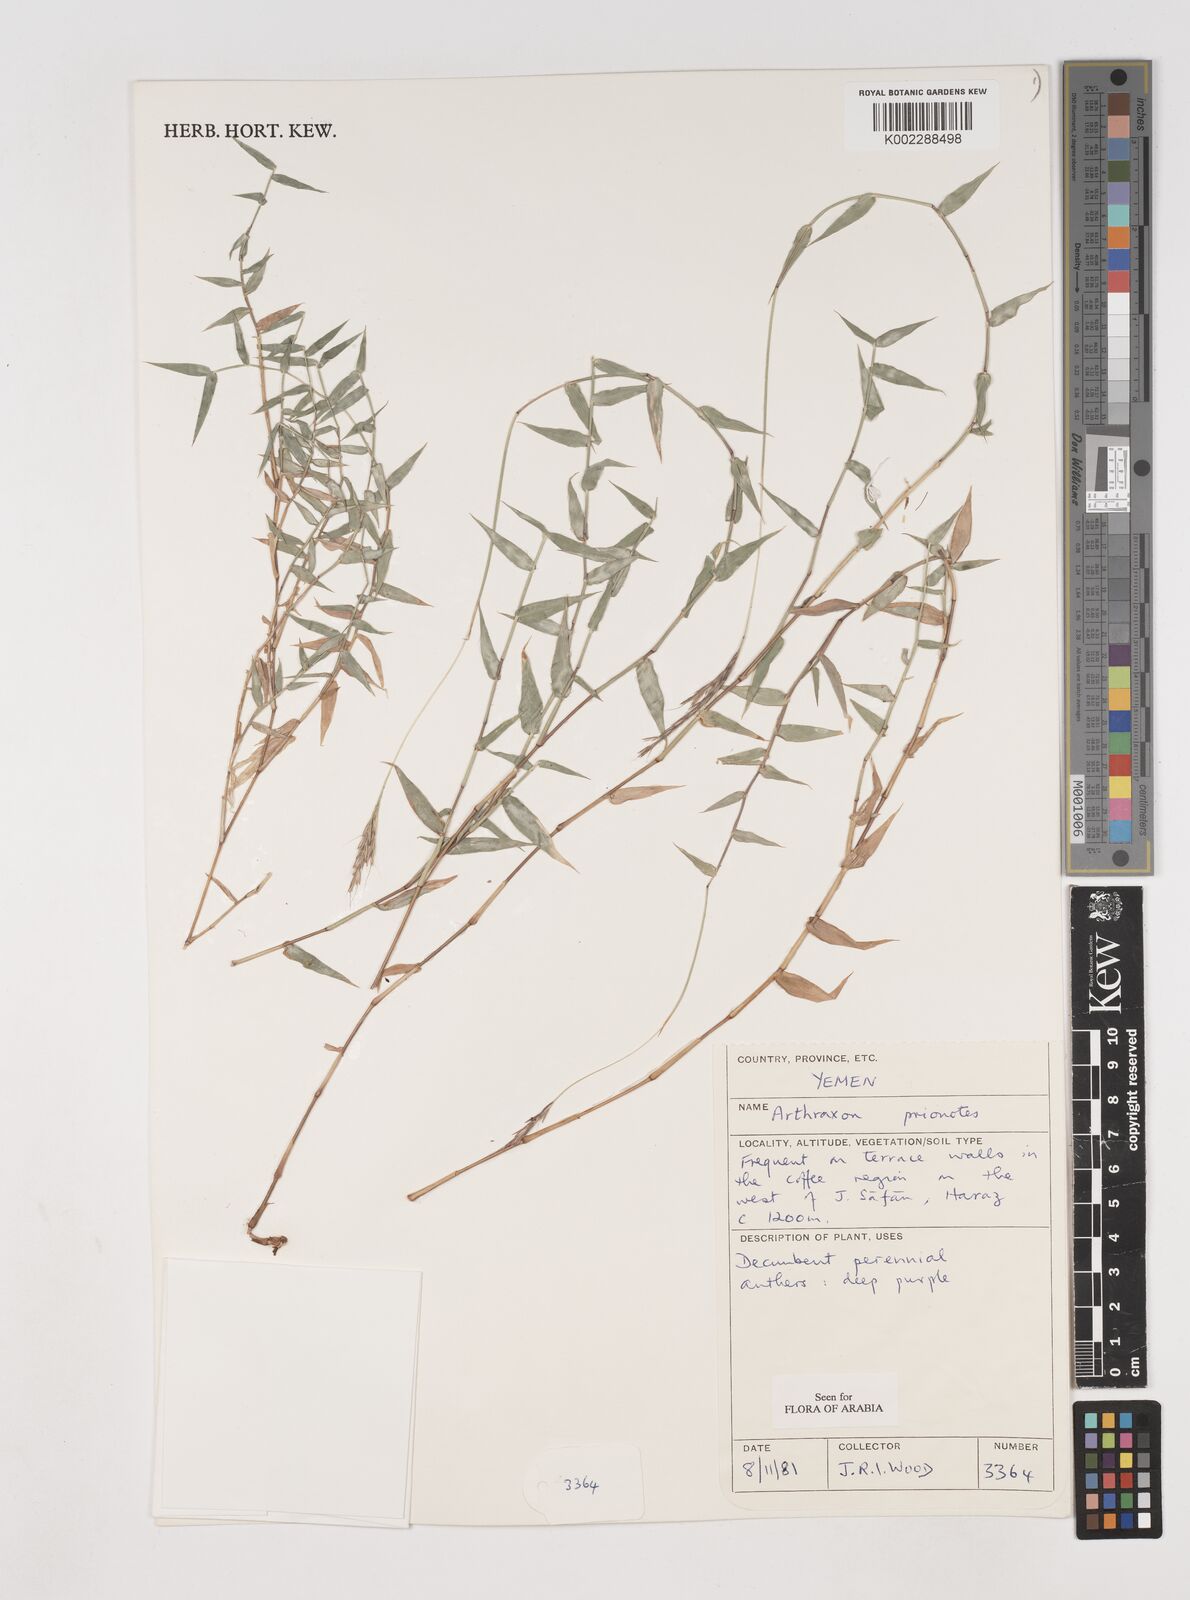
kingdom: Plantae
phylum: Tracheophyta
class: Liliopsida
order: Poales
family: Poaceae
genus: Arthraxon
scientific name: Arthraxon prionodes
